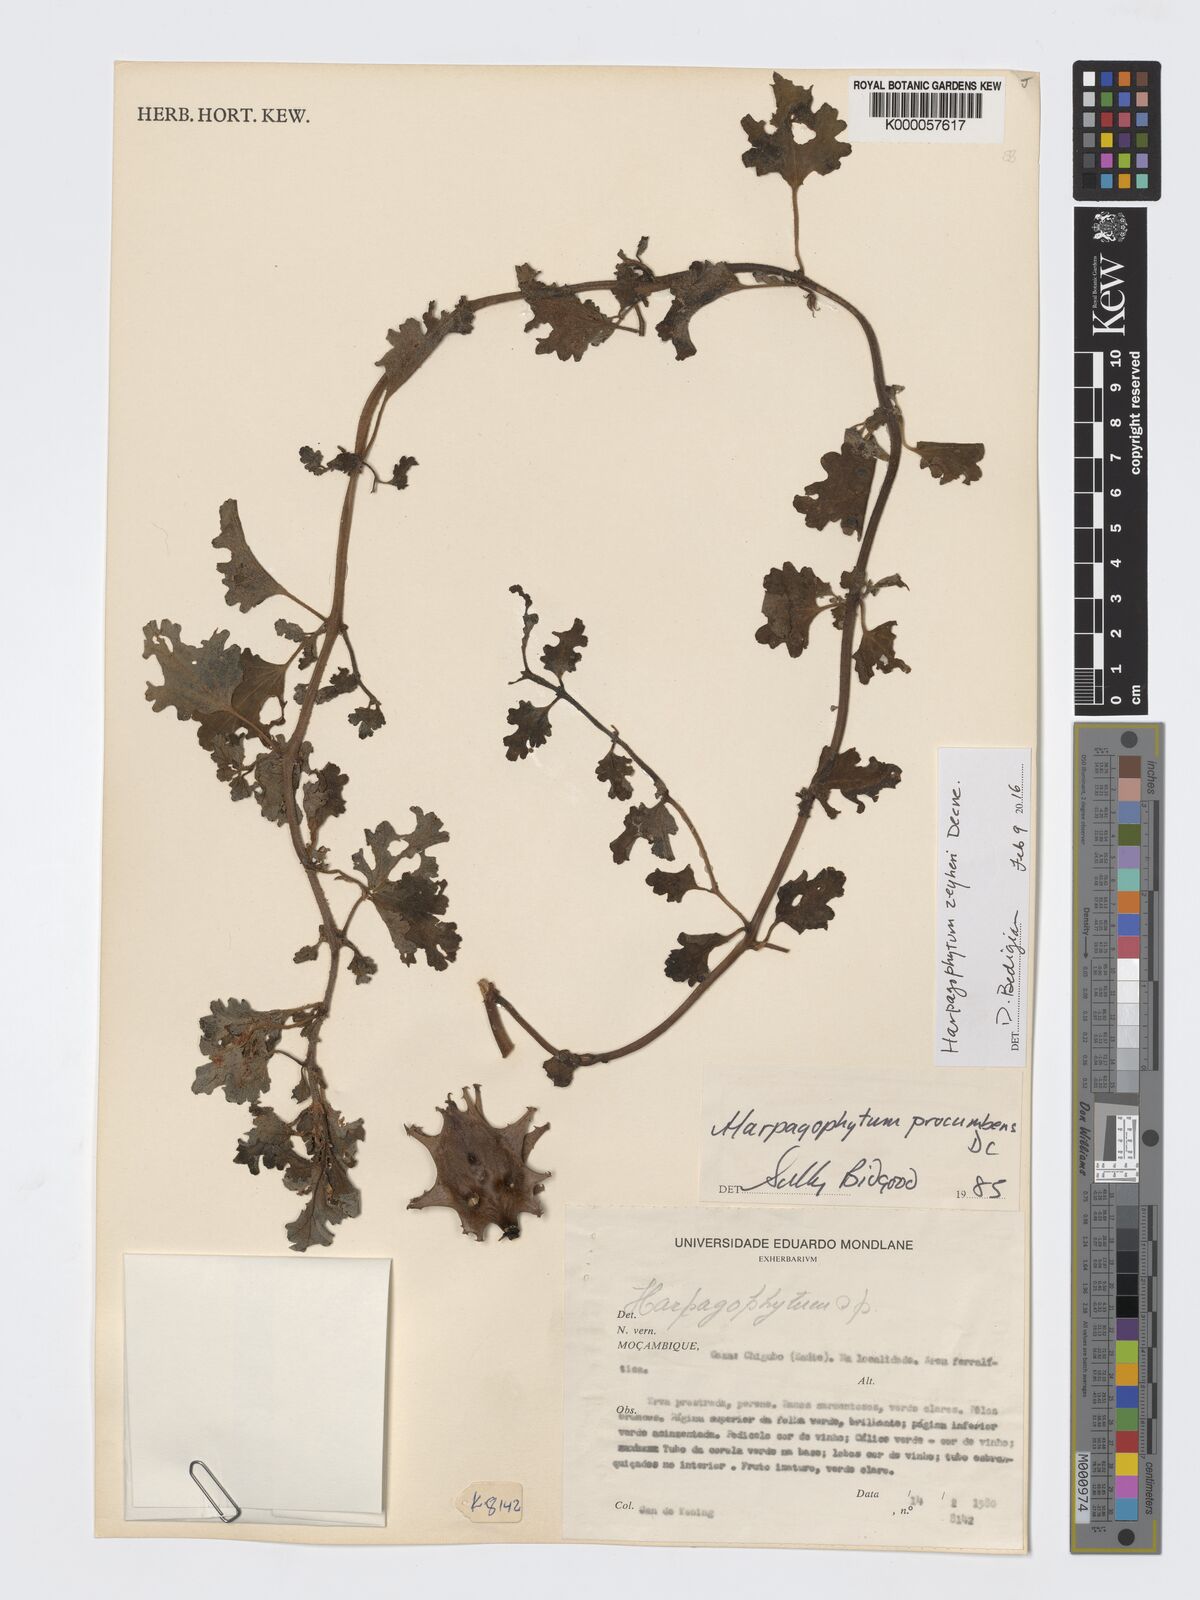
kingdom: Plantae
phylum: Tracheophyta
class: Magnoliopsida
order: Lamiales
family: Pedaliaceae
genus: Harpagophytum
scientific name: Harpagophytum procumbens
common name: Grappleplant
